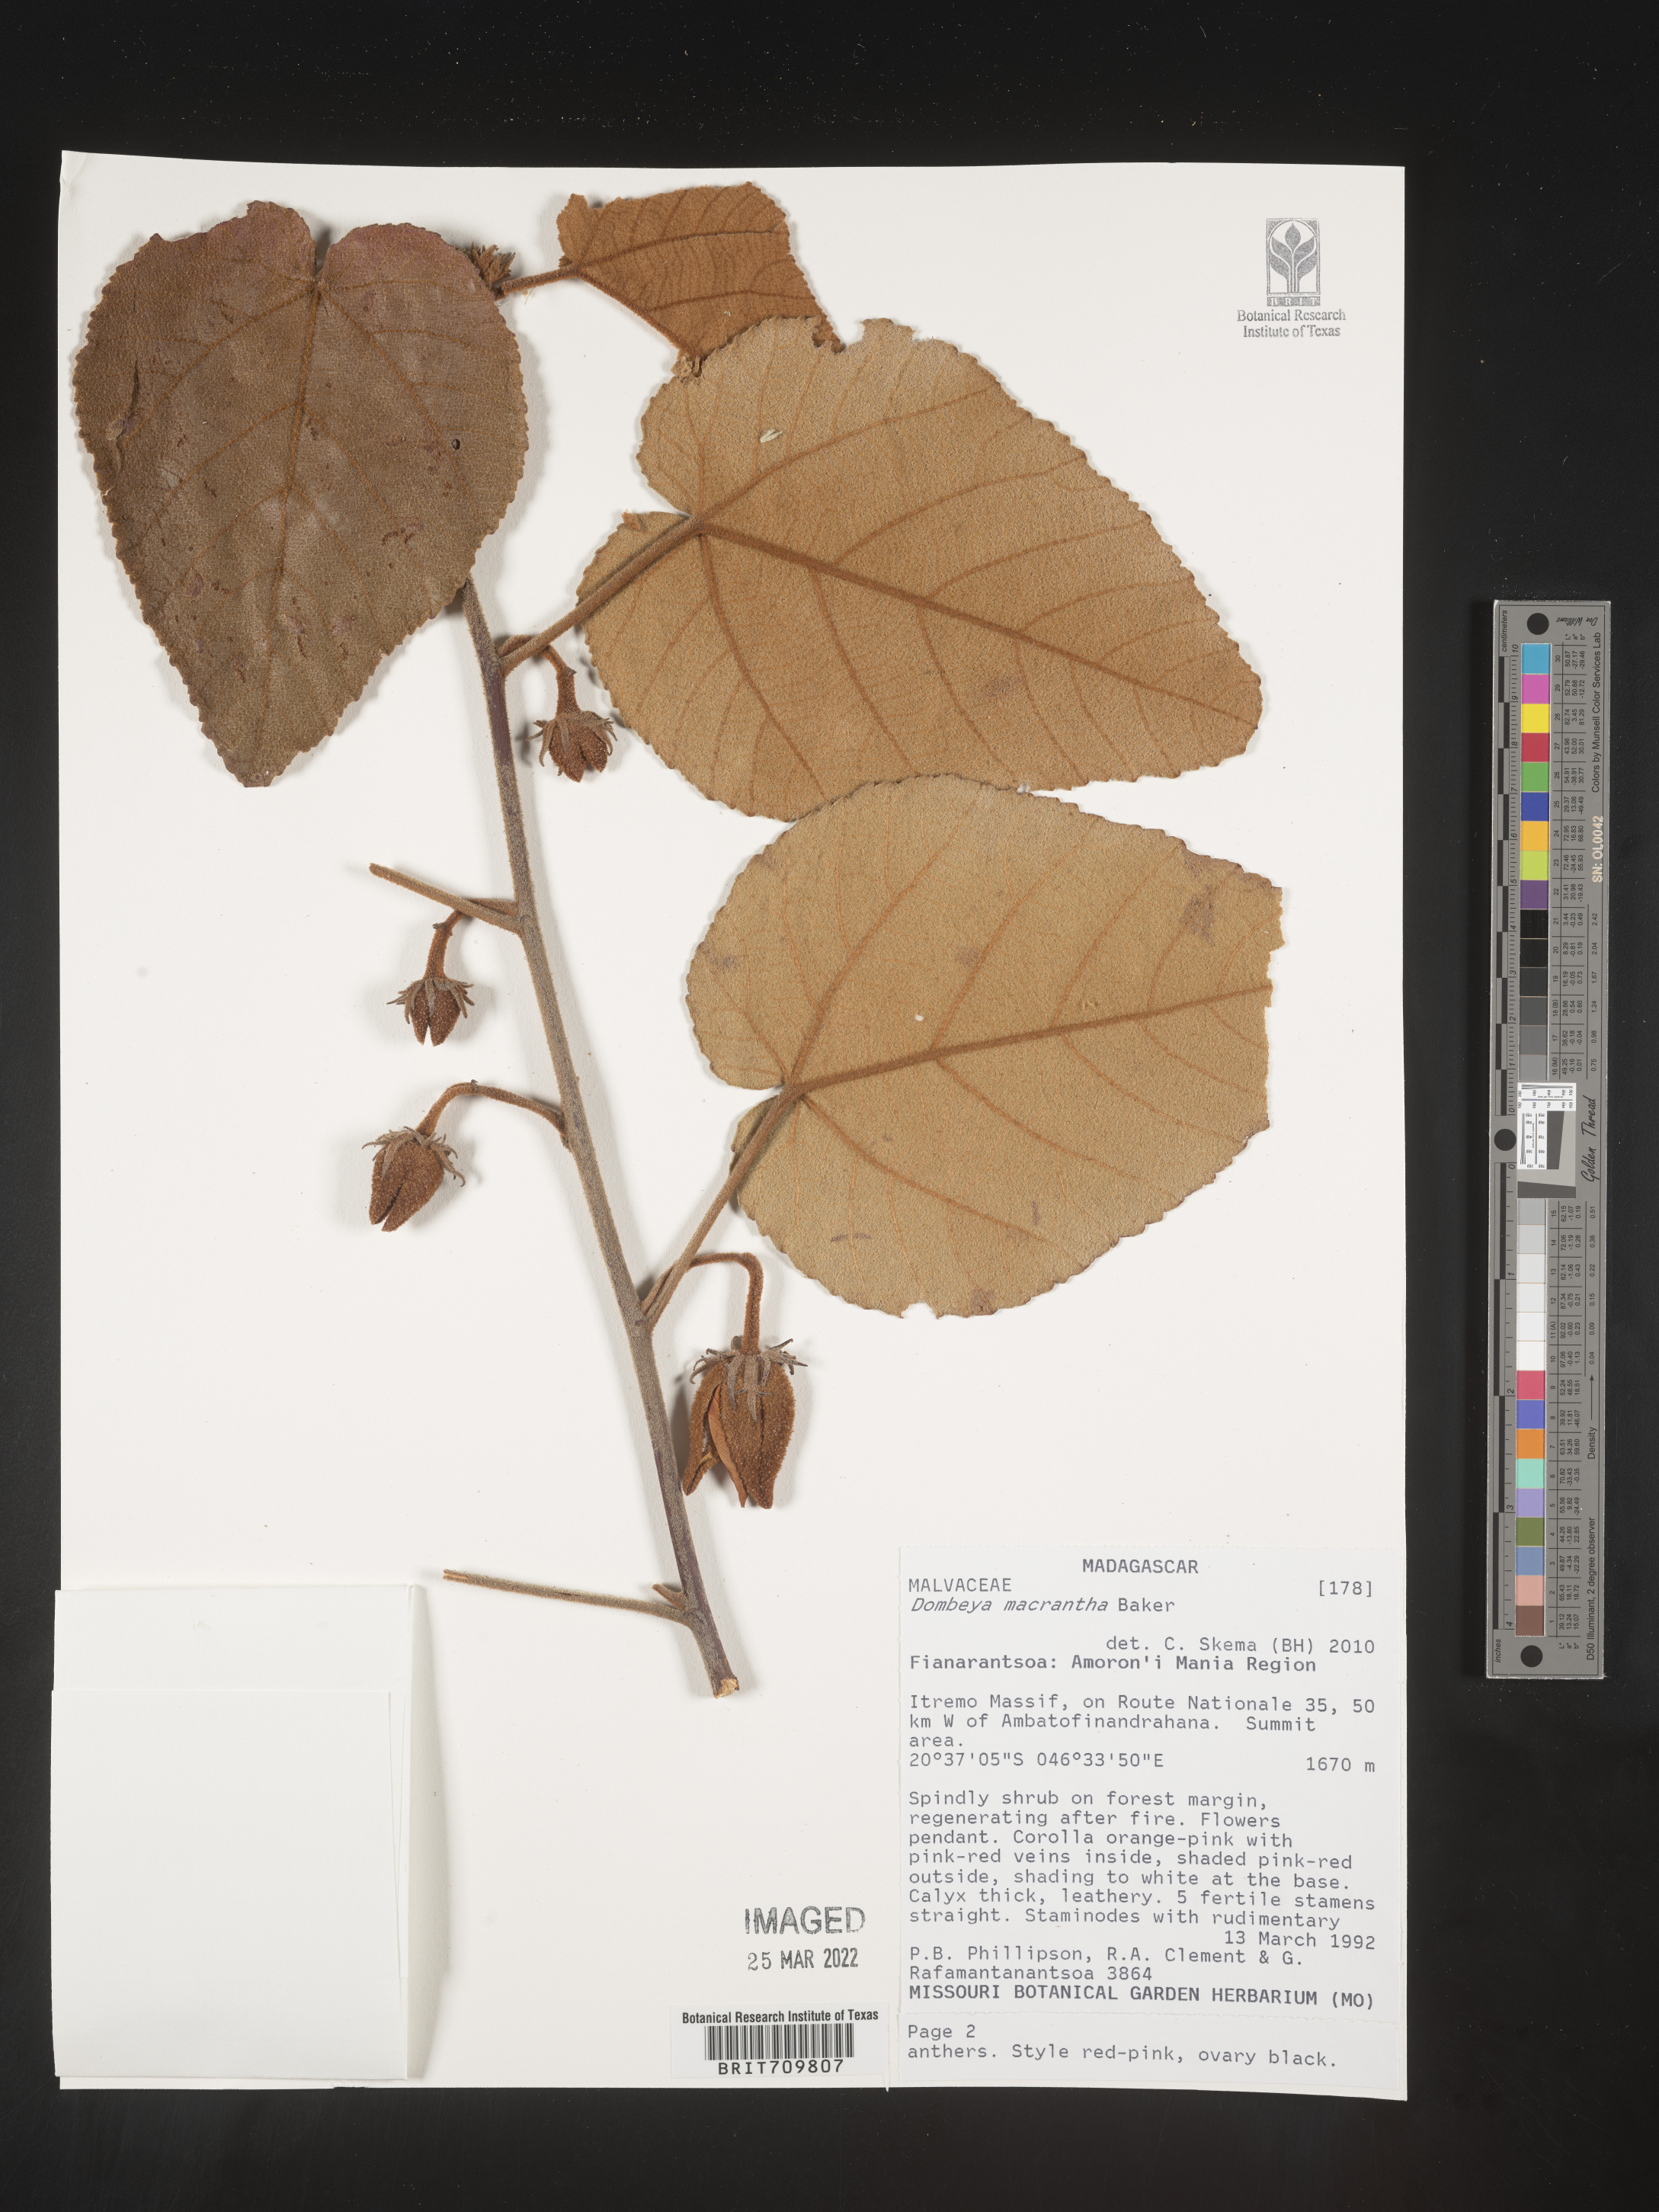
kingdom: Plantae
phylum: Tracheophyta
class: Magnoliopsida
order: Malvales
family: Malvaceae
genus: Dombeya
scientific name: Dombeya
